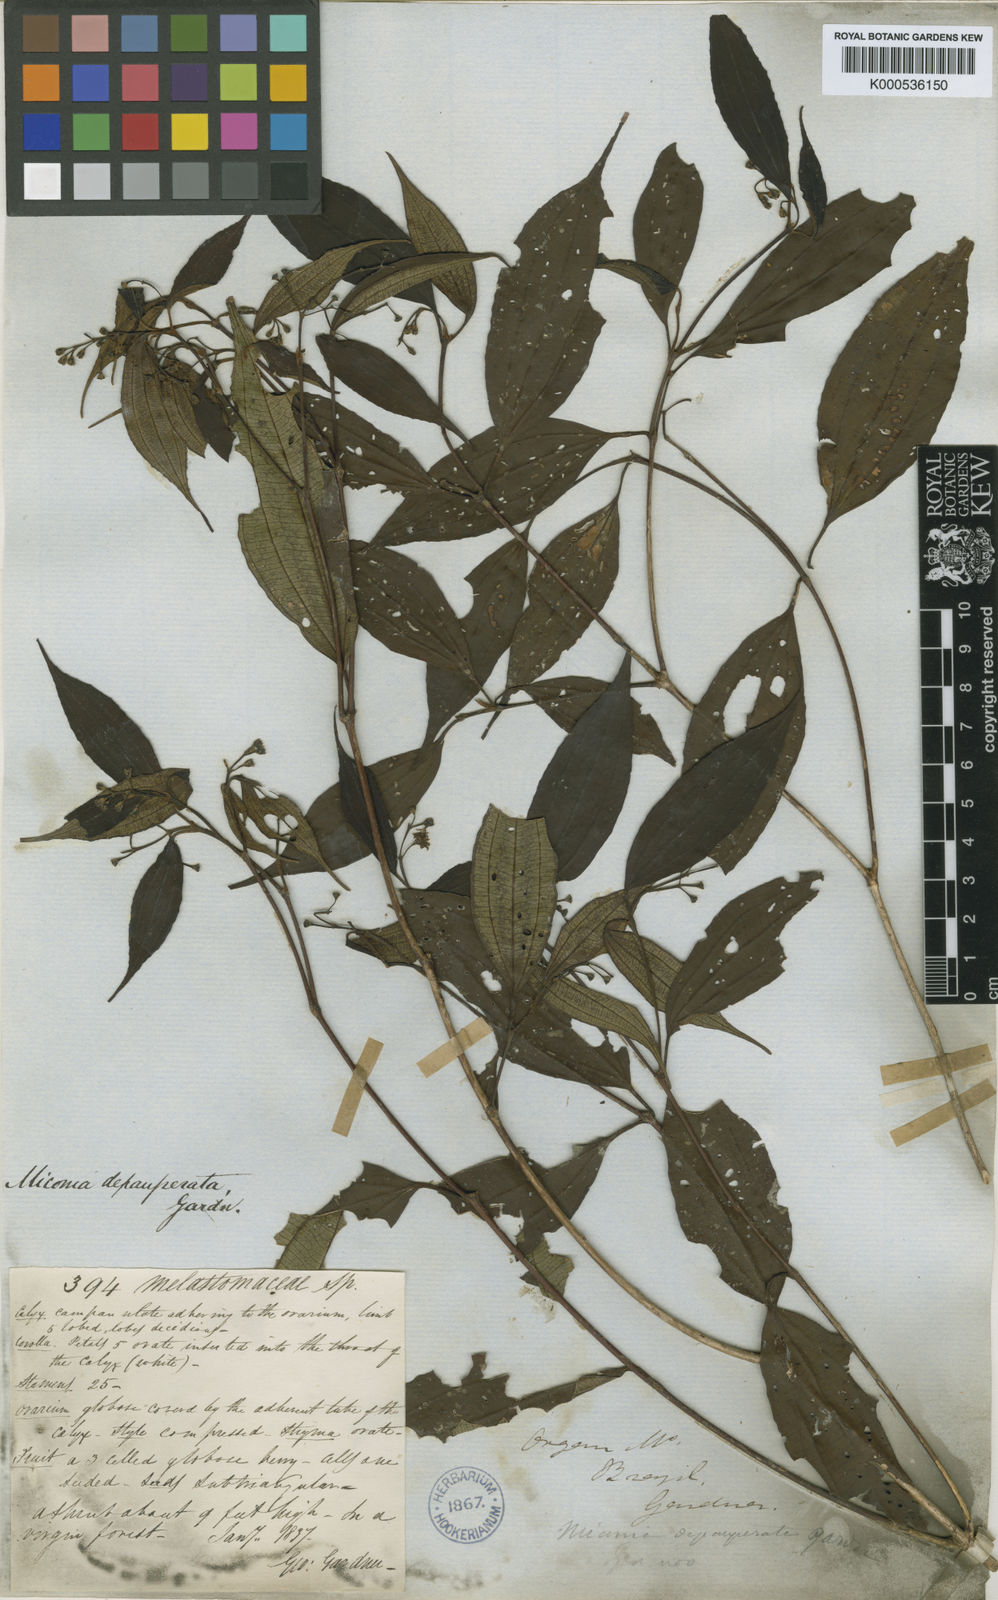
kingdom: Plantae
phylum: Tracheophyta
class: Magnoliopsida
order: Myrtales
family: Melastomataceae
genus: Miconia
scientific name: Miconia depauperata
